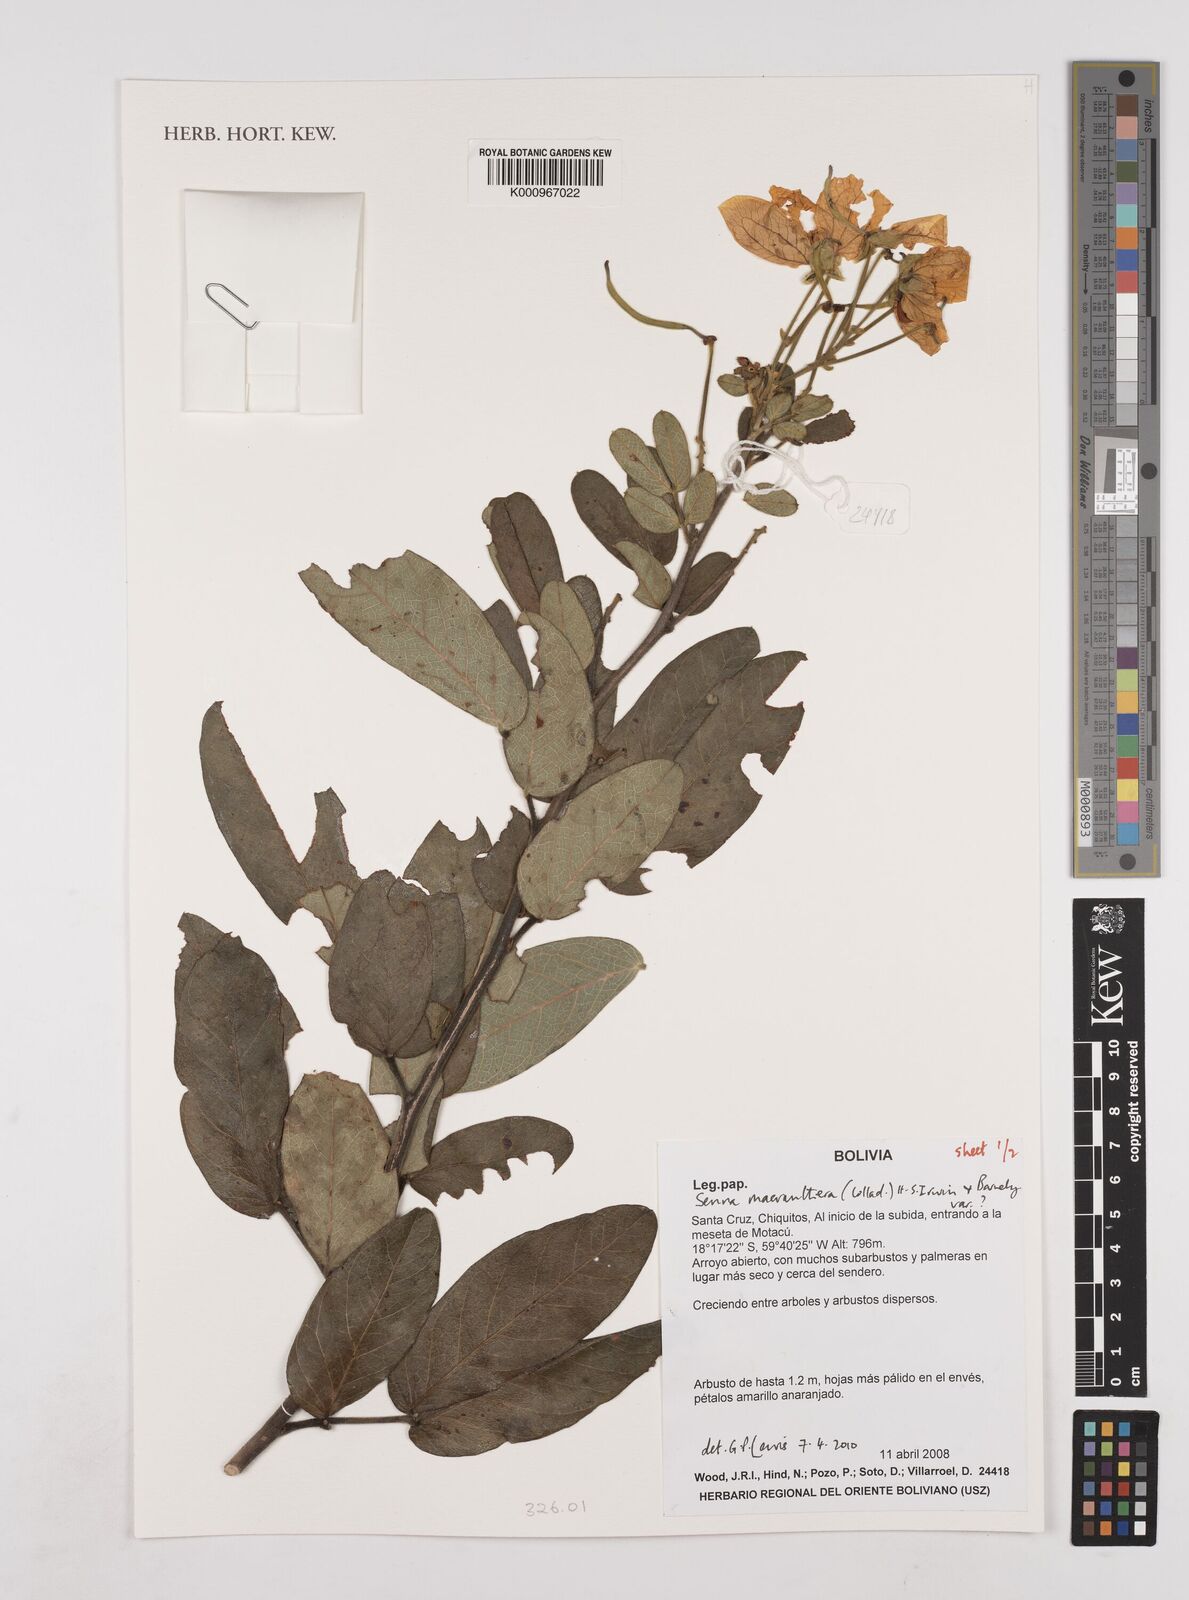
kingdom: Plantae
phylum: Tracheophyta
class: Magnoliopsida
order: Fabales
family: Fabaceae
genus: Senna
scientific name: Senna macranthera
